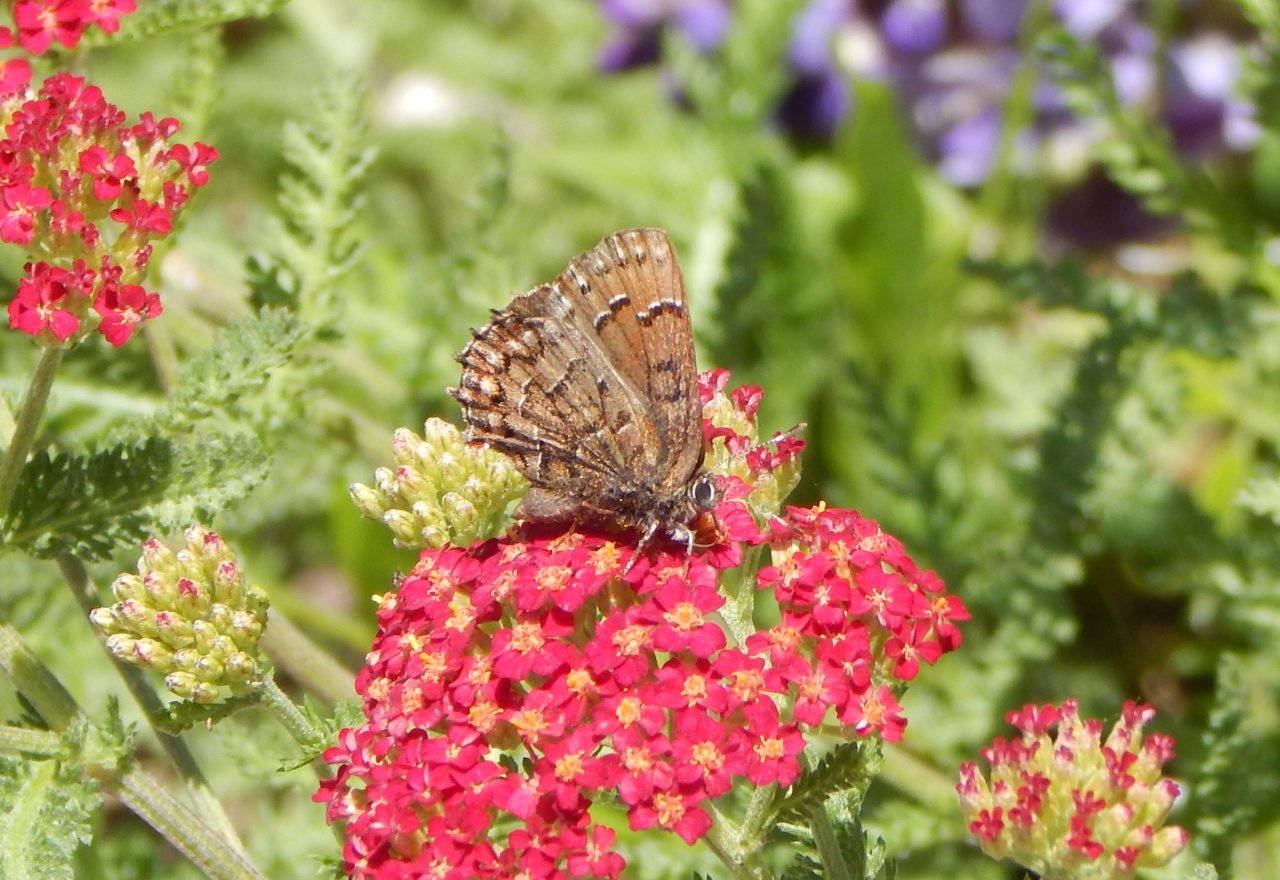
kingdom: Animalia
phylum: Arthropoda
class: Insecta
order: Lepidoptera
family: Lycaenidae
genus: Incisalia
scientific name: Incisalia niphon
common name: Eastern Pine Elfin
